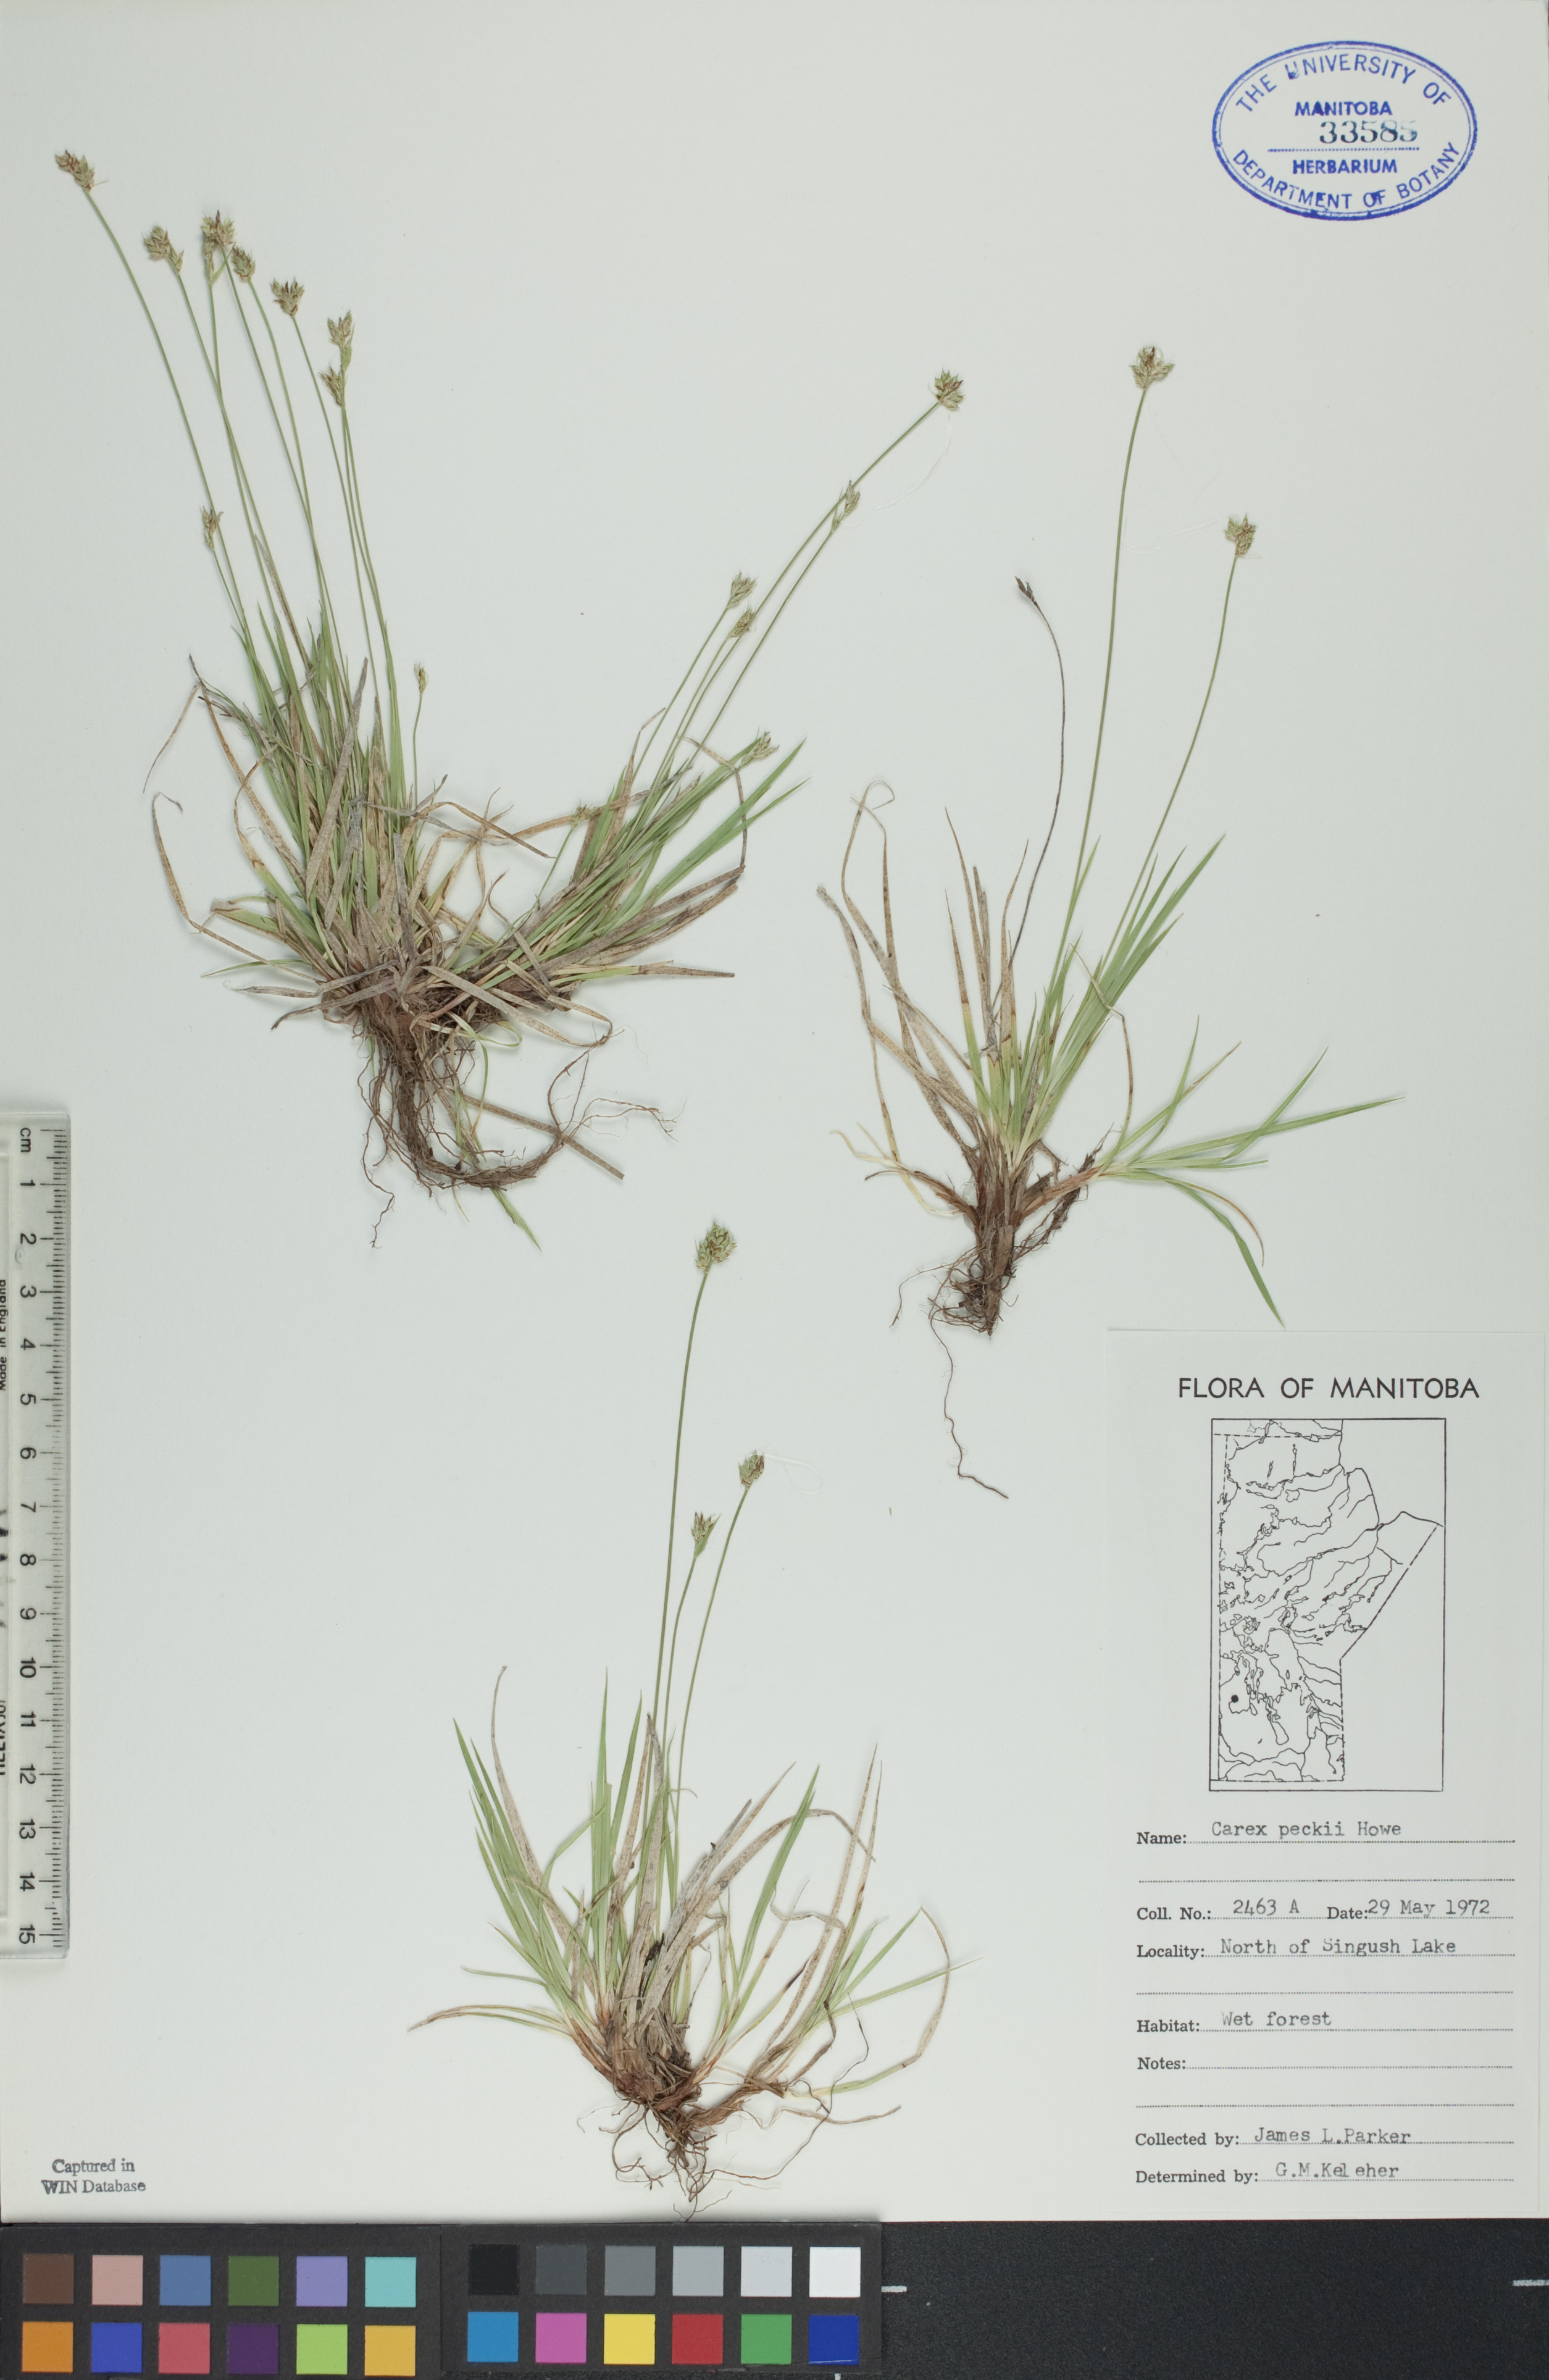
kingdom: Plantae
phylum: Tracheophyta
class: Liliopsida
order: Poales
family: Cyperaceae
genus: Carex
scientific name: Carex peckii
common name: Peck's oak sedge
